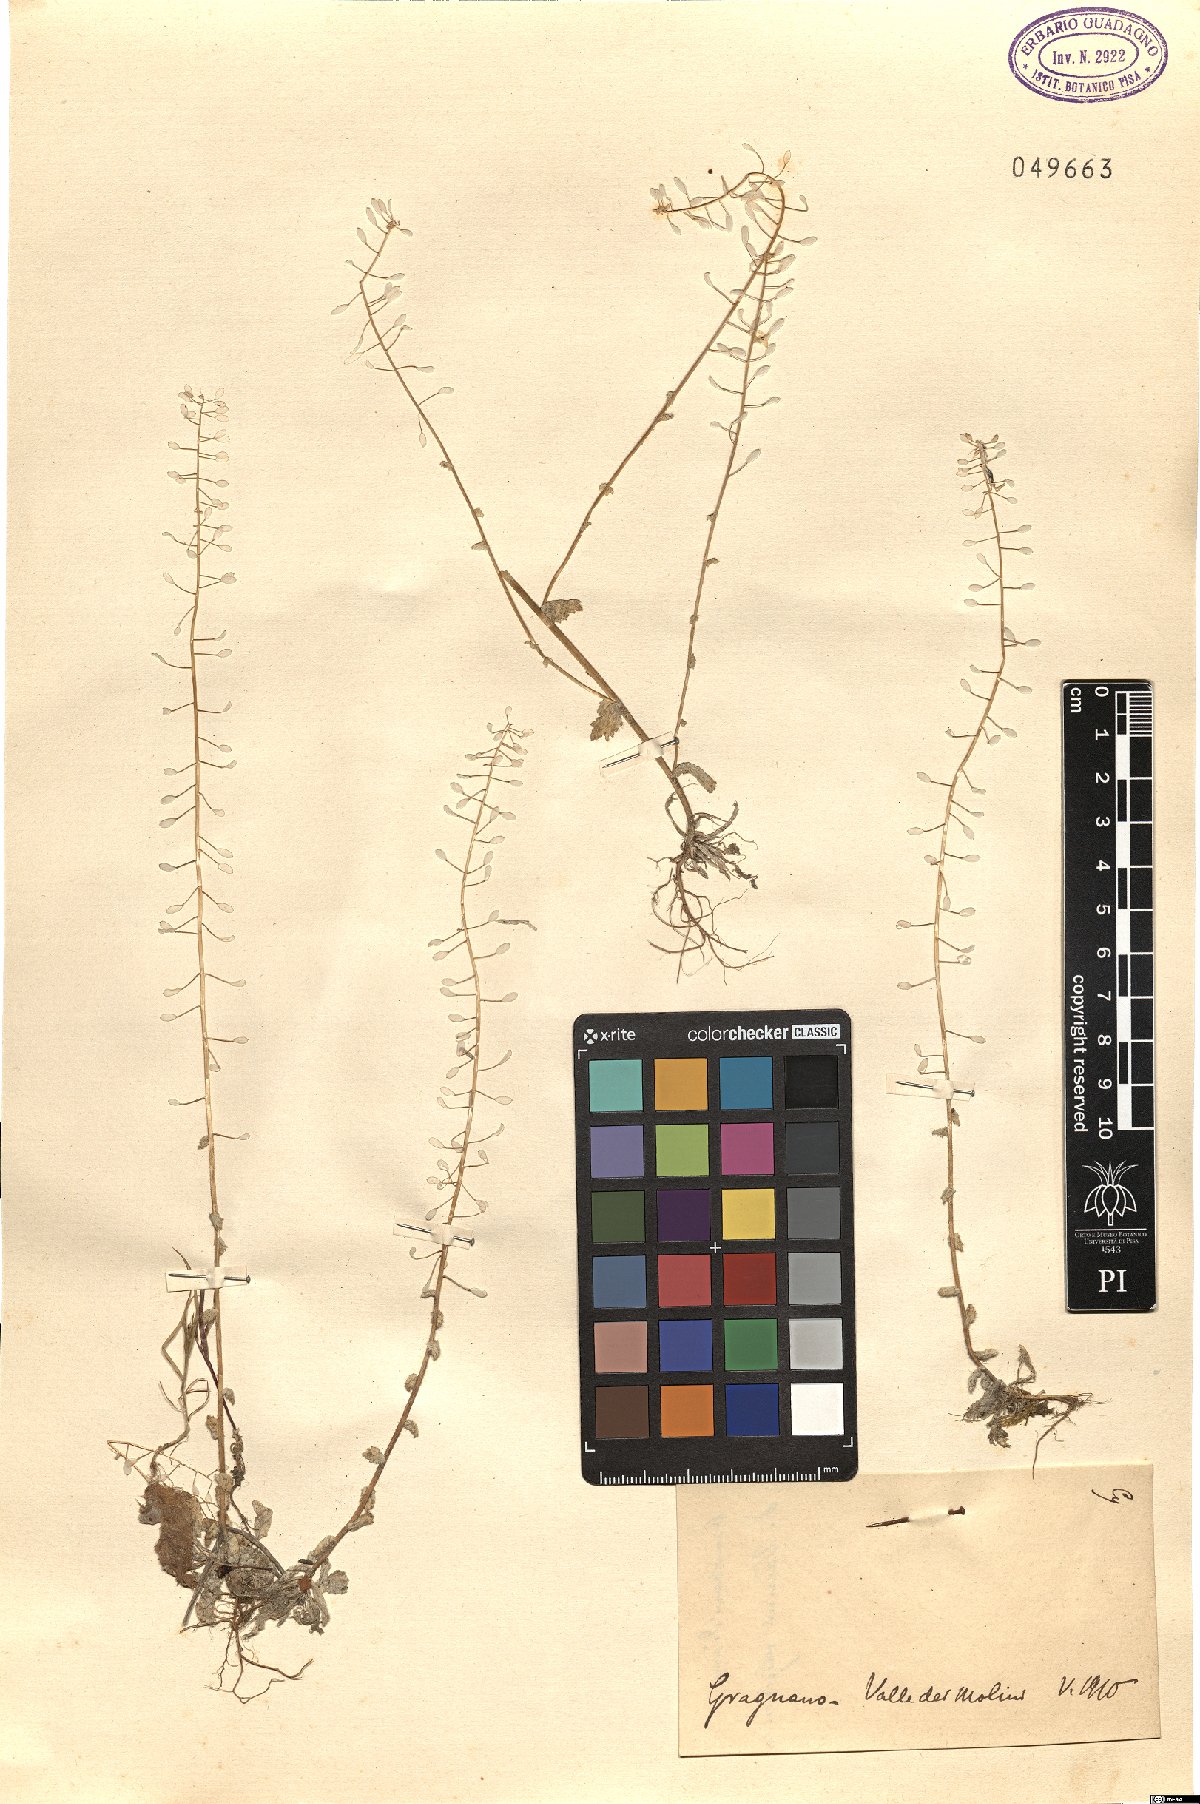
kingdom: Plantae
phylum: Tracheophyta
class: Magnoliopsida
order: Brassicales
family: Brassicaceae
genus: Draba
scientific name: Draba
